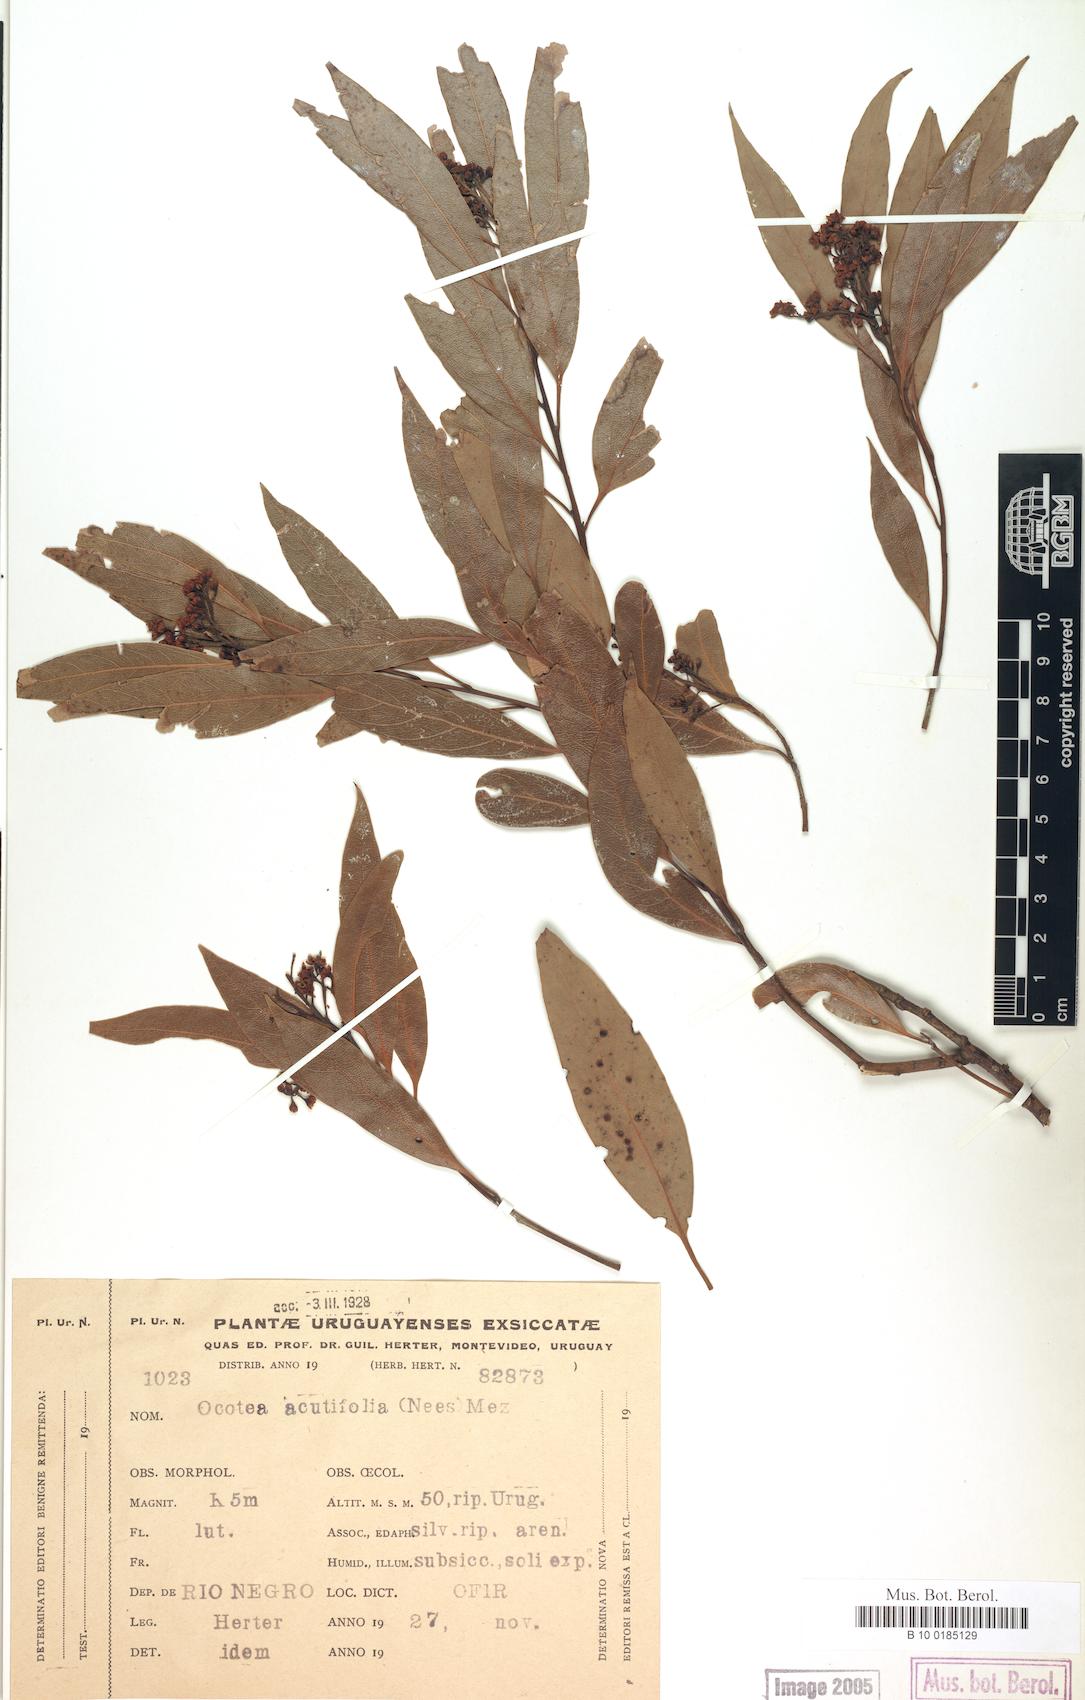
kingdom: Plantae
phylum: Tracheophyta
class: Magnoliopsida
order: Laurales
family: Lauraceae
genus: Ocotea
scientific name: Ocotea acutifolia
